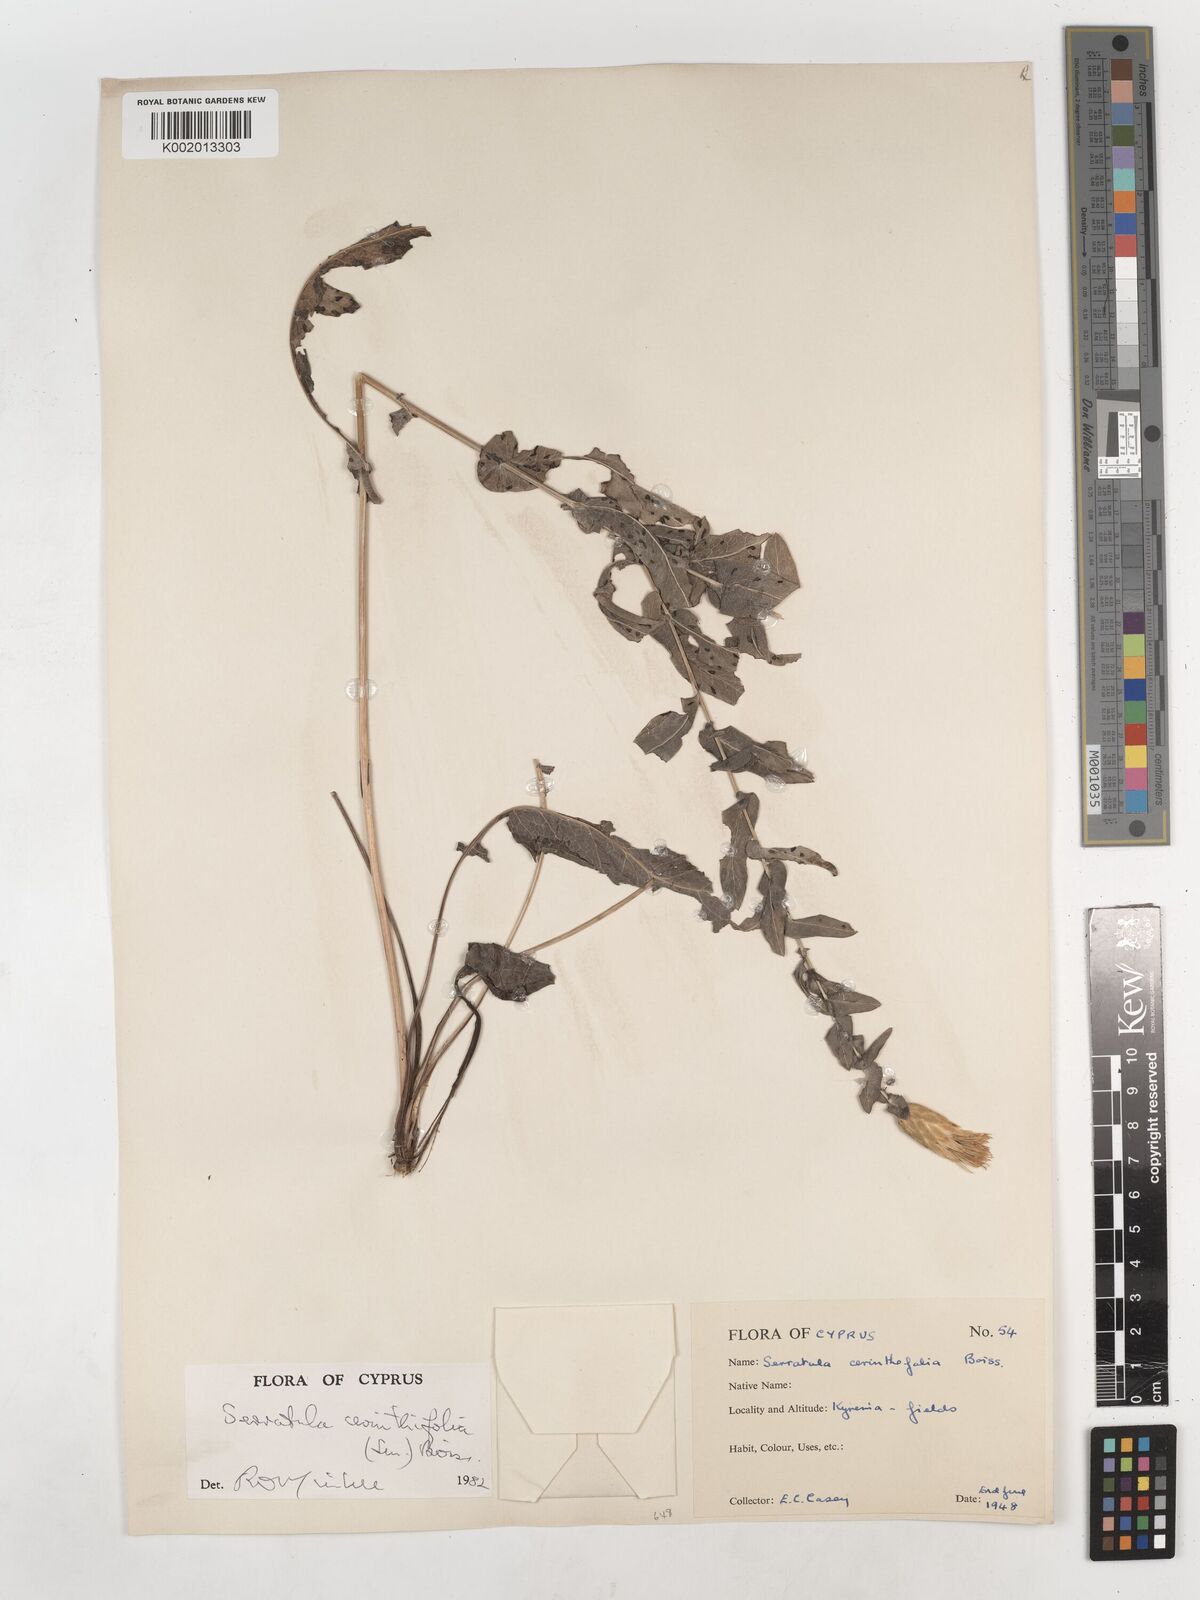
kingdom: Plantae
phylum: Tracheophyta
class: Magnoliopsida
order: Asterales
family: Asteraceae
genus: Klasea
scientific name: Klasea cerinthifolia
